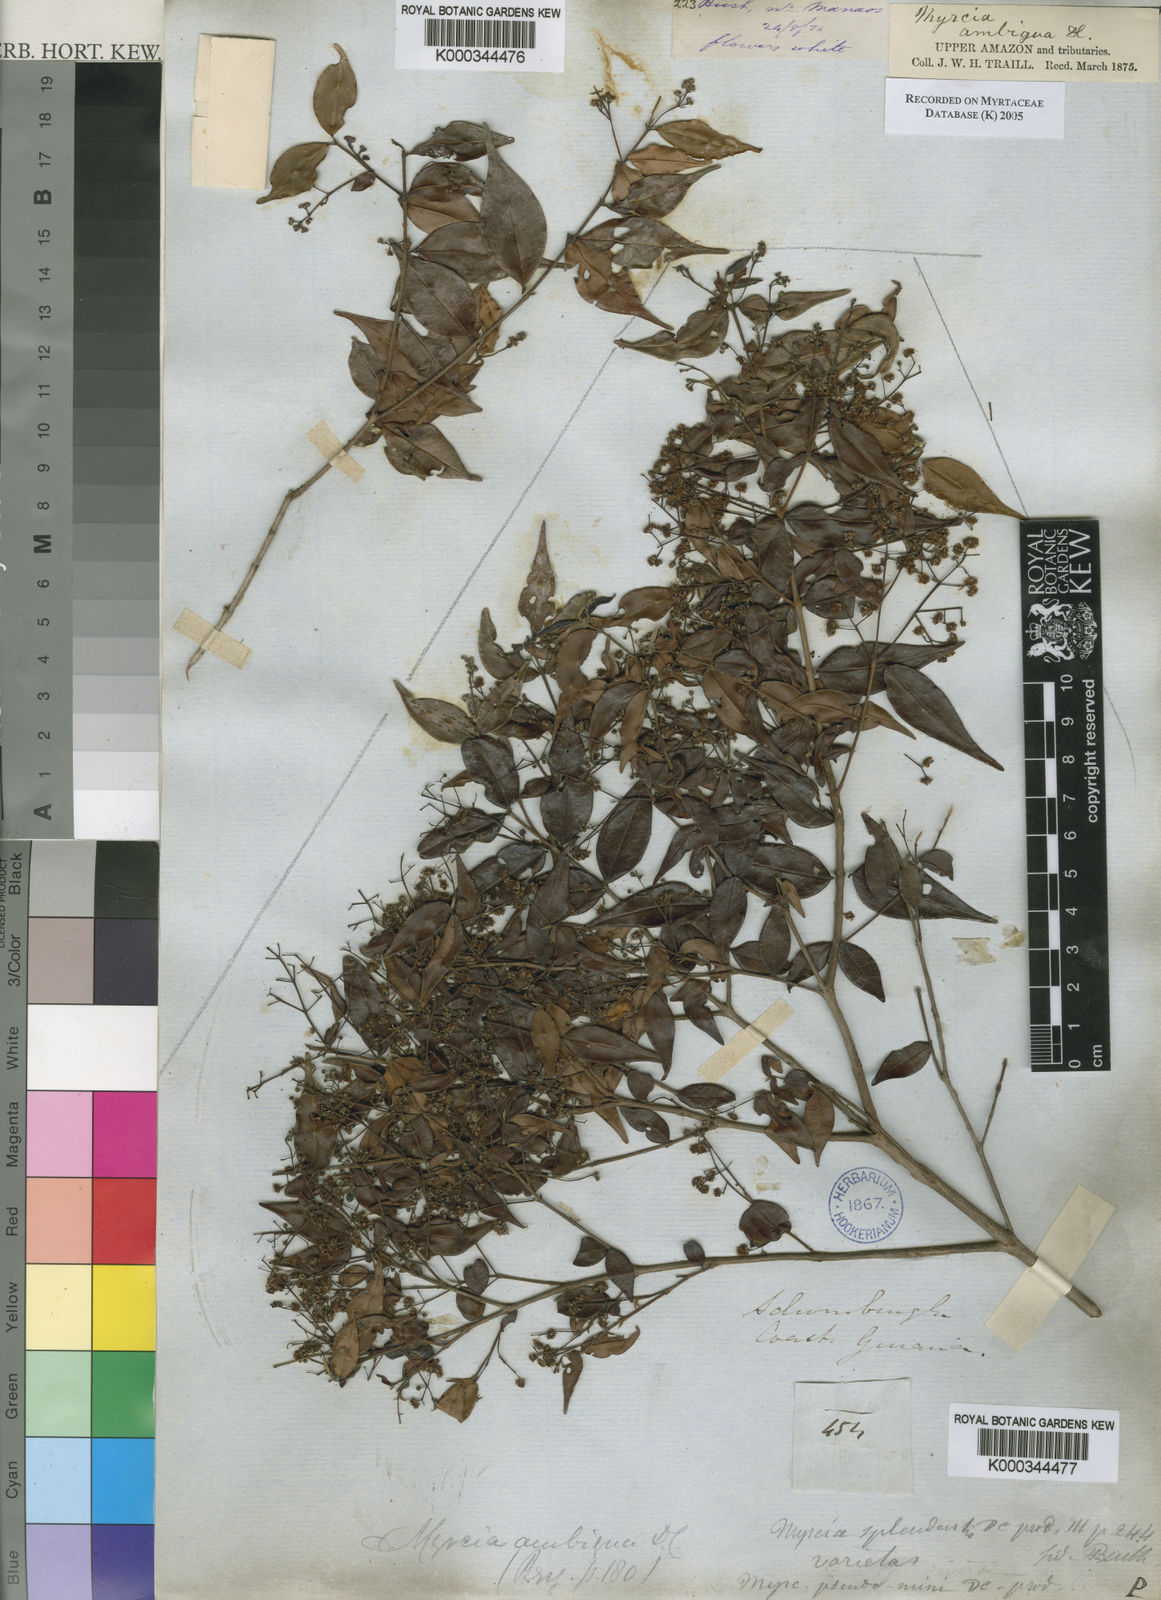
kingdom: Plantae
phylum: Tracheophyta
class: Magnoliopsida
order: Myrtales
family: Myrtaceae
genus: Myrcia
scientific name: Myrcia sylvatica
